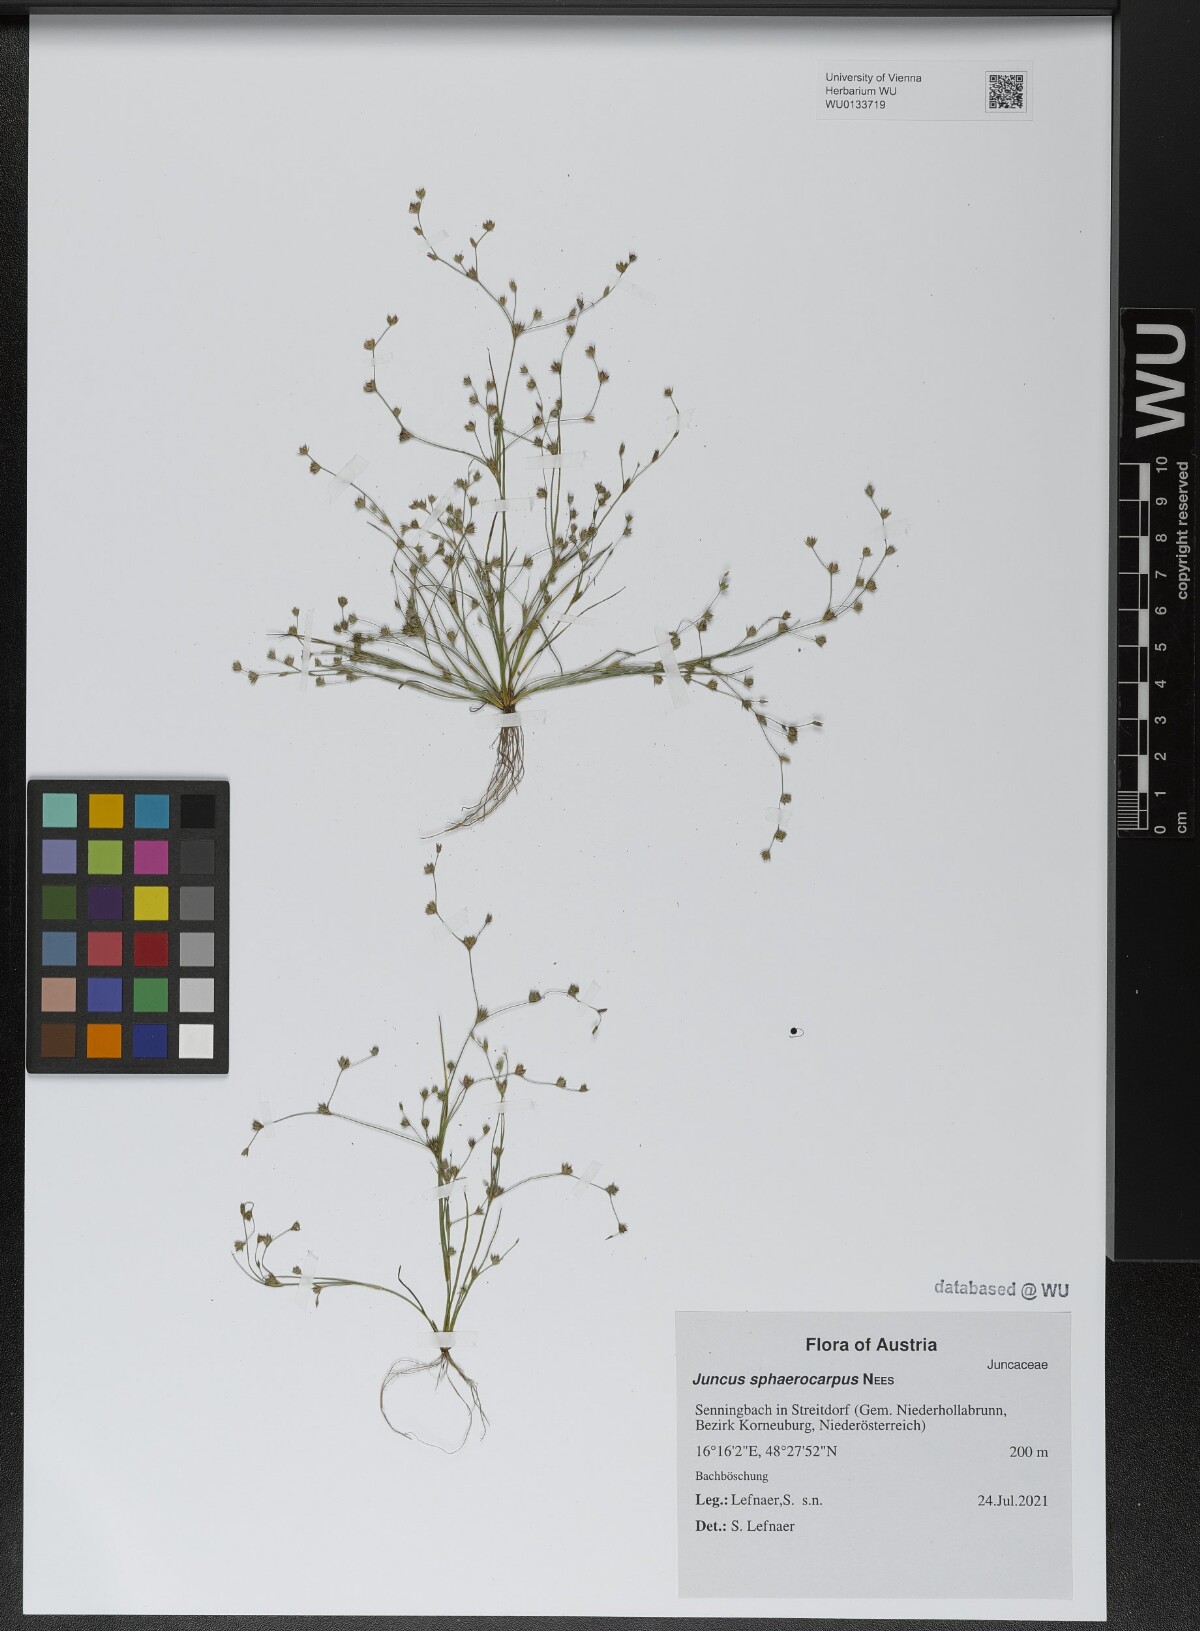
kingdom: Plantae
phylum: Tracheophyta
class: Liliopsida
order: Poales
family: Juncaceae
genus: Juncus
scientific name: Juncus sphaerocarpus
